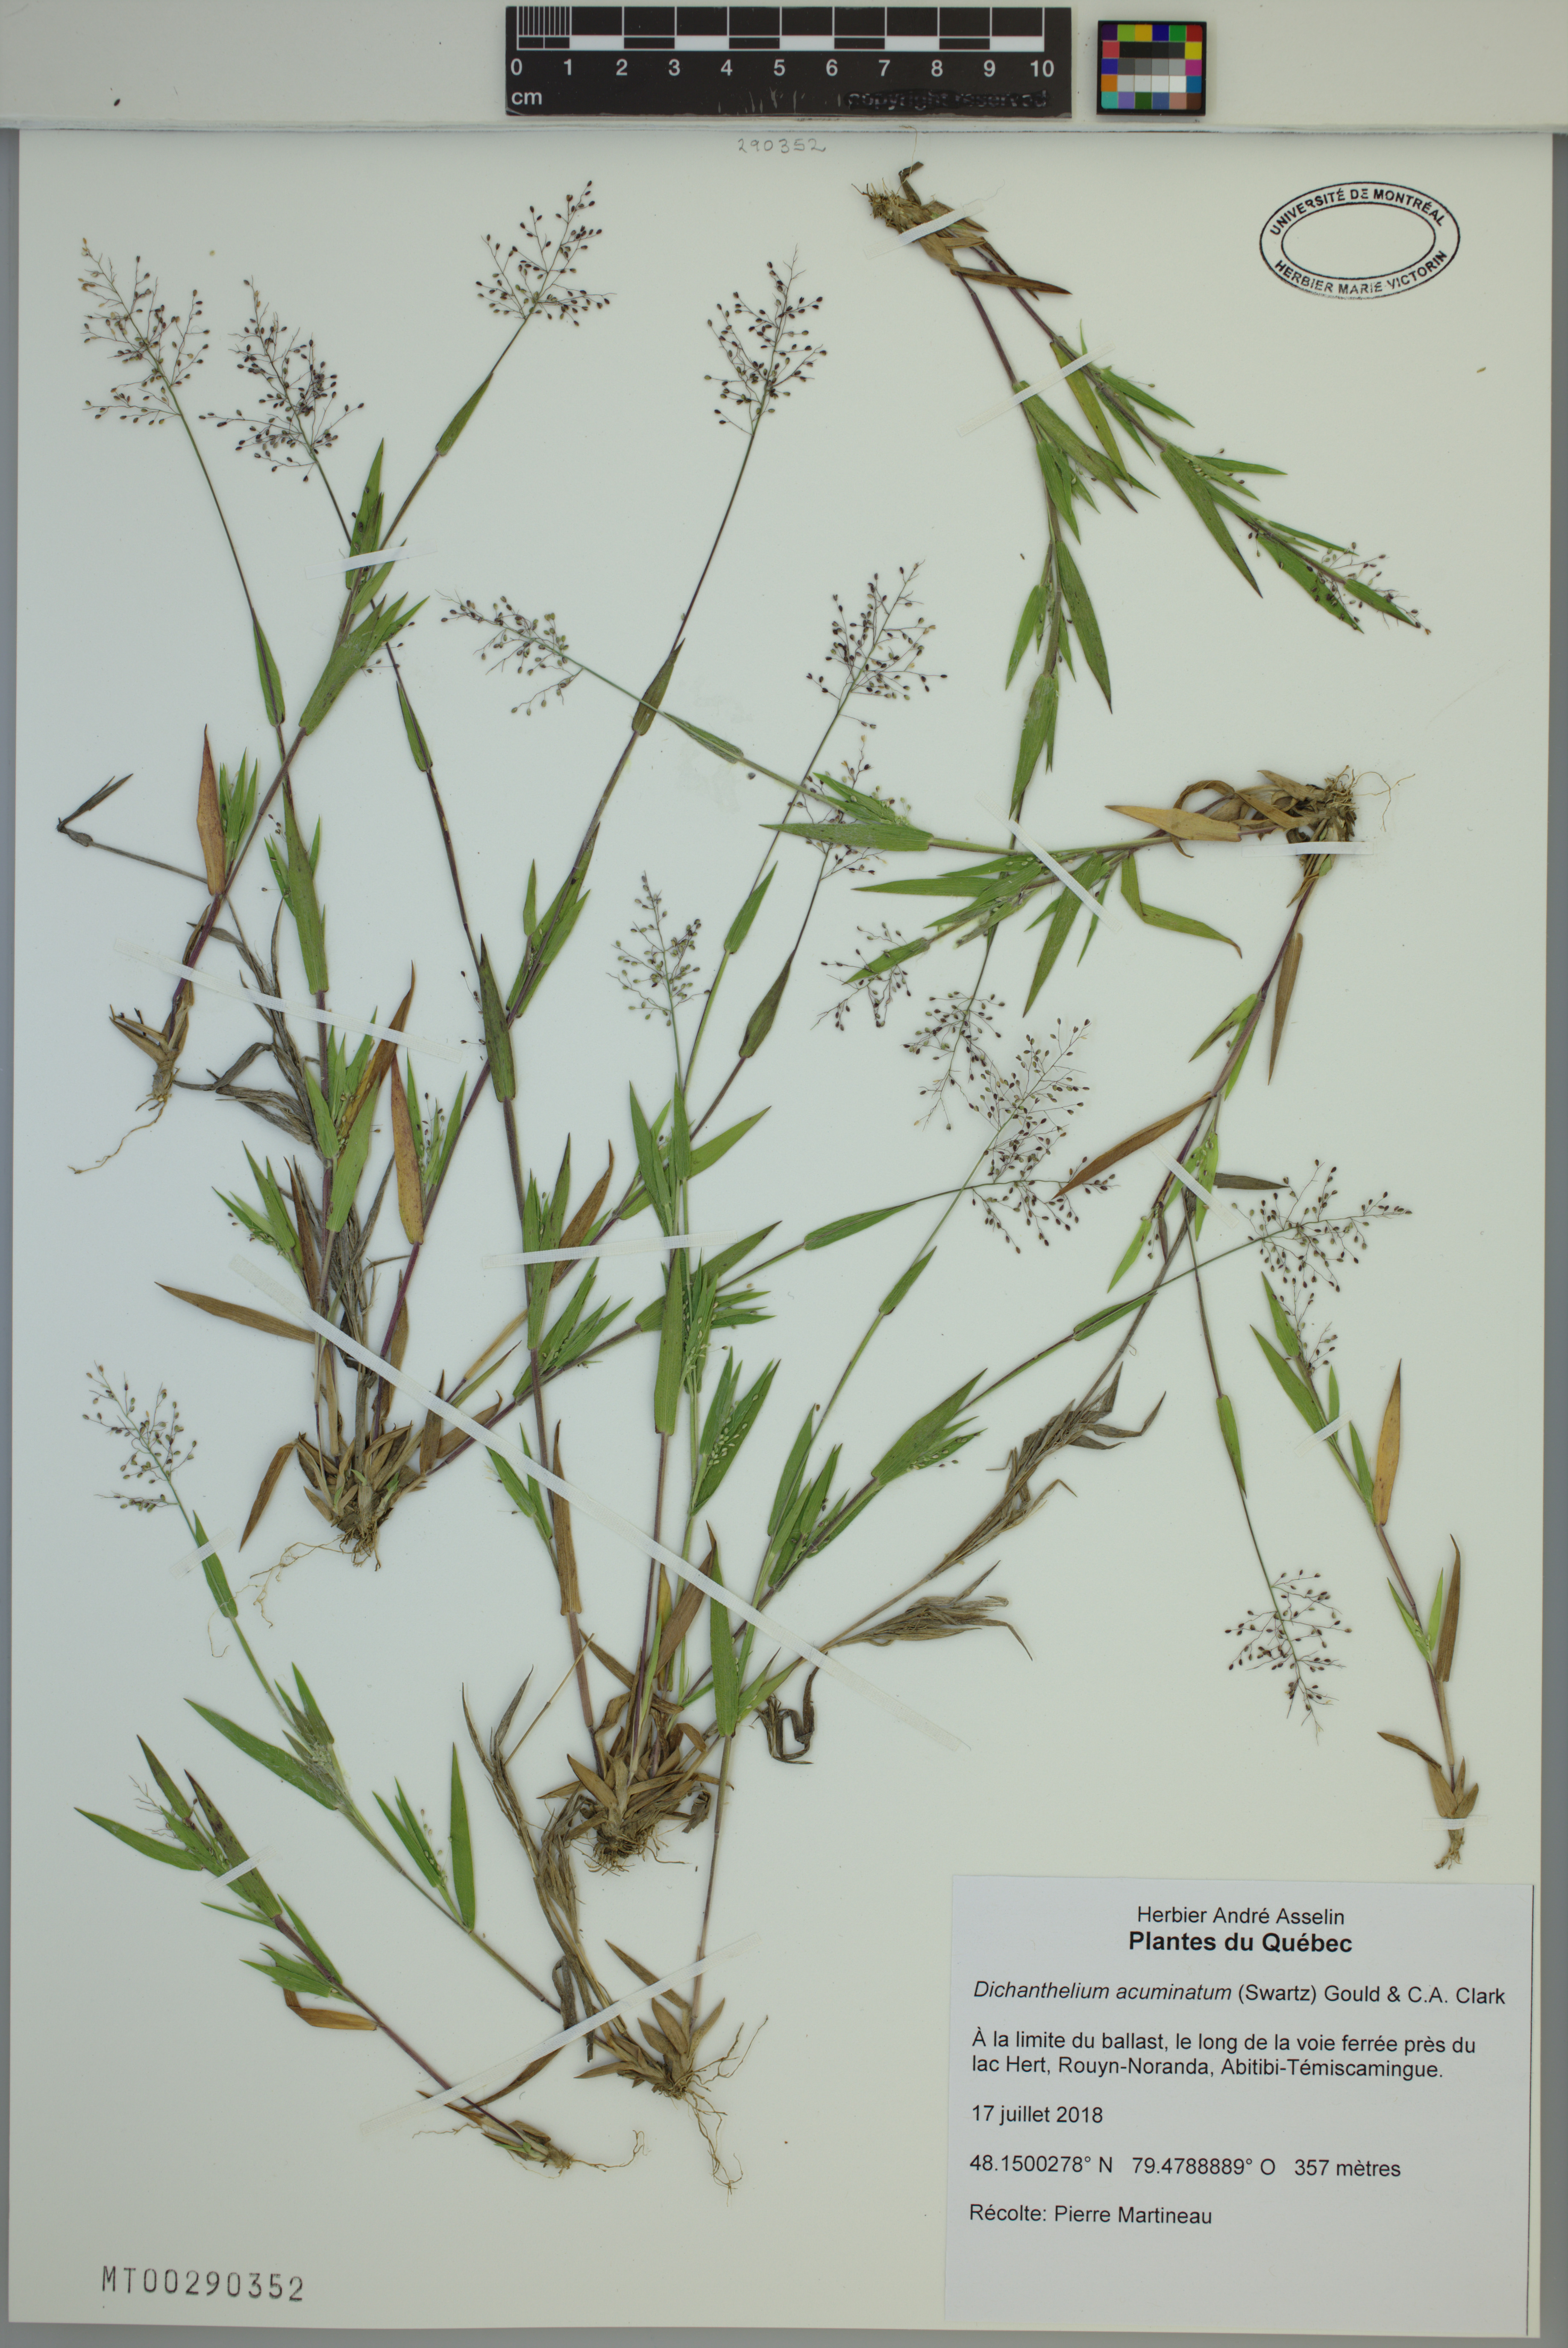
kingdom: Plantae
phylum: Tracheophyta
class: Liliopsida
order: Poales
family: Poaceae
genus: Dichanthelium
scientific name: Dichanthelium acuminatum
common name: Hairy panic grass
